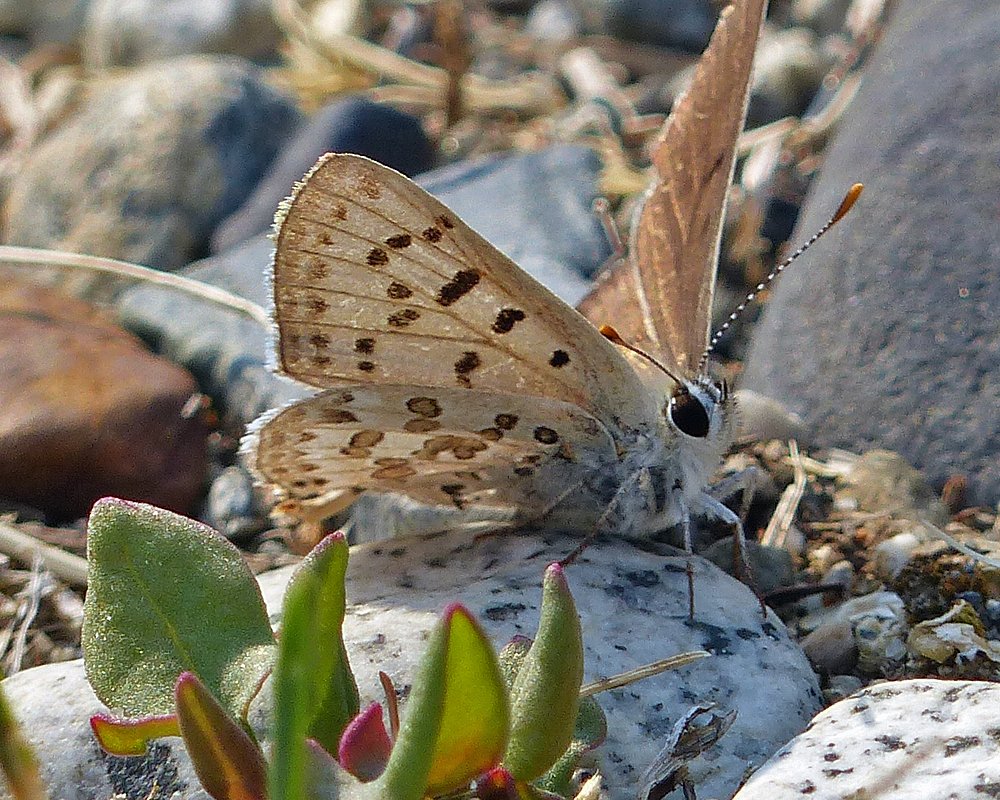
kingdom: Animalia
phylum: Arthropoda
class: Insecta
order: Lepidoptera
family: Lycaenidae
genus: Lycaena
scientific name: Lycaena editha
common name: Edith's Copper
